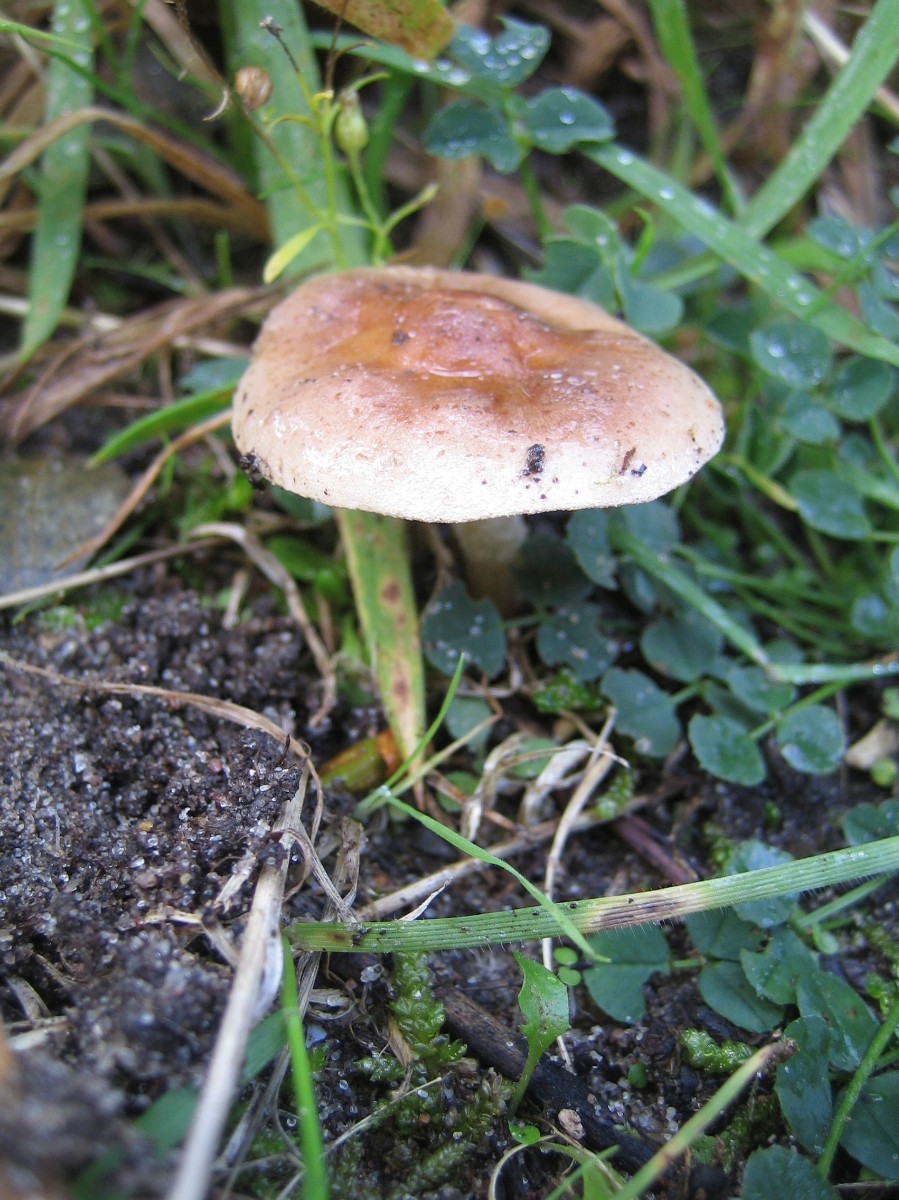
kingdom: Fungi
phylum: Basidiomycota
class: Agaricomycetes
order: Agaricales
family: Hymenogastraceae
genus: Hebeloma
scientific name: Hebeloma
